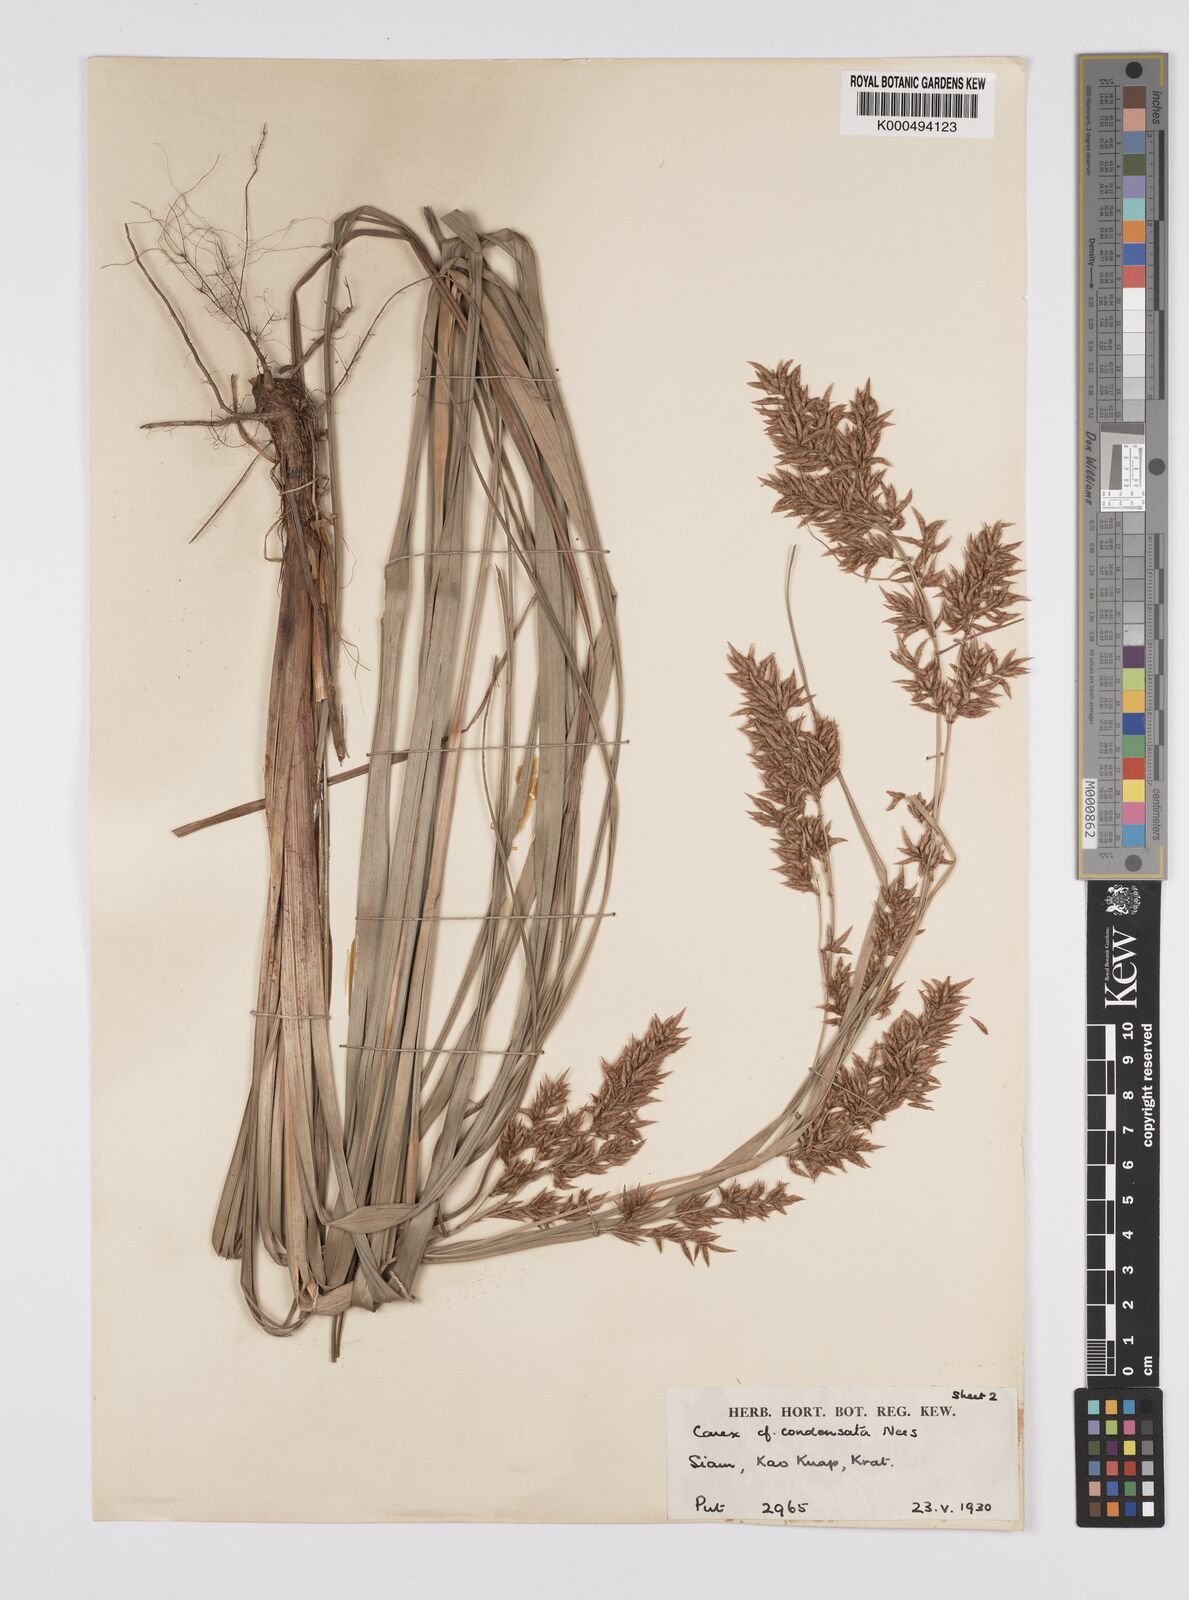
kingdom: Plantae
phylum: Tracheophyta
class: Liliopsida
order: Poales
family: Cyperaceae
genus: Carex
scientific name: Carex condensata
